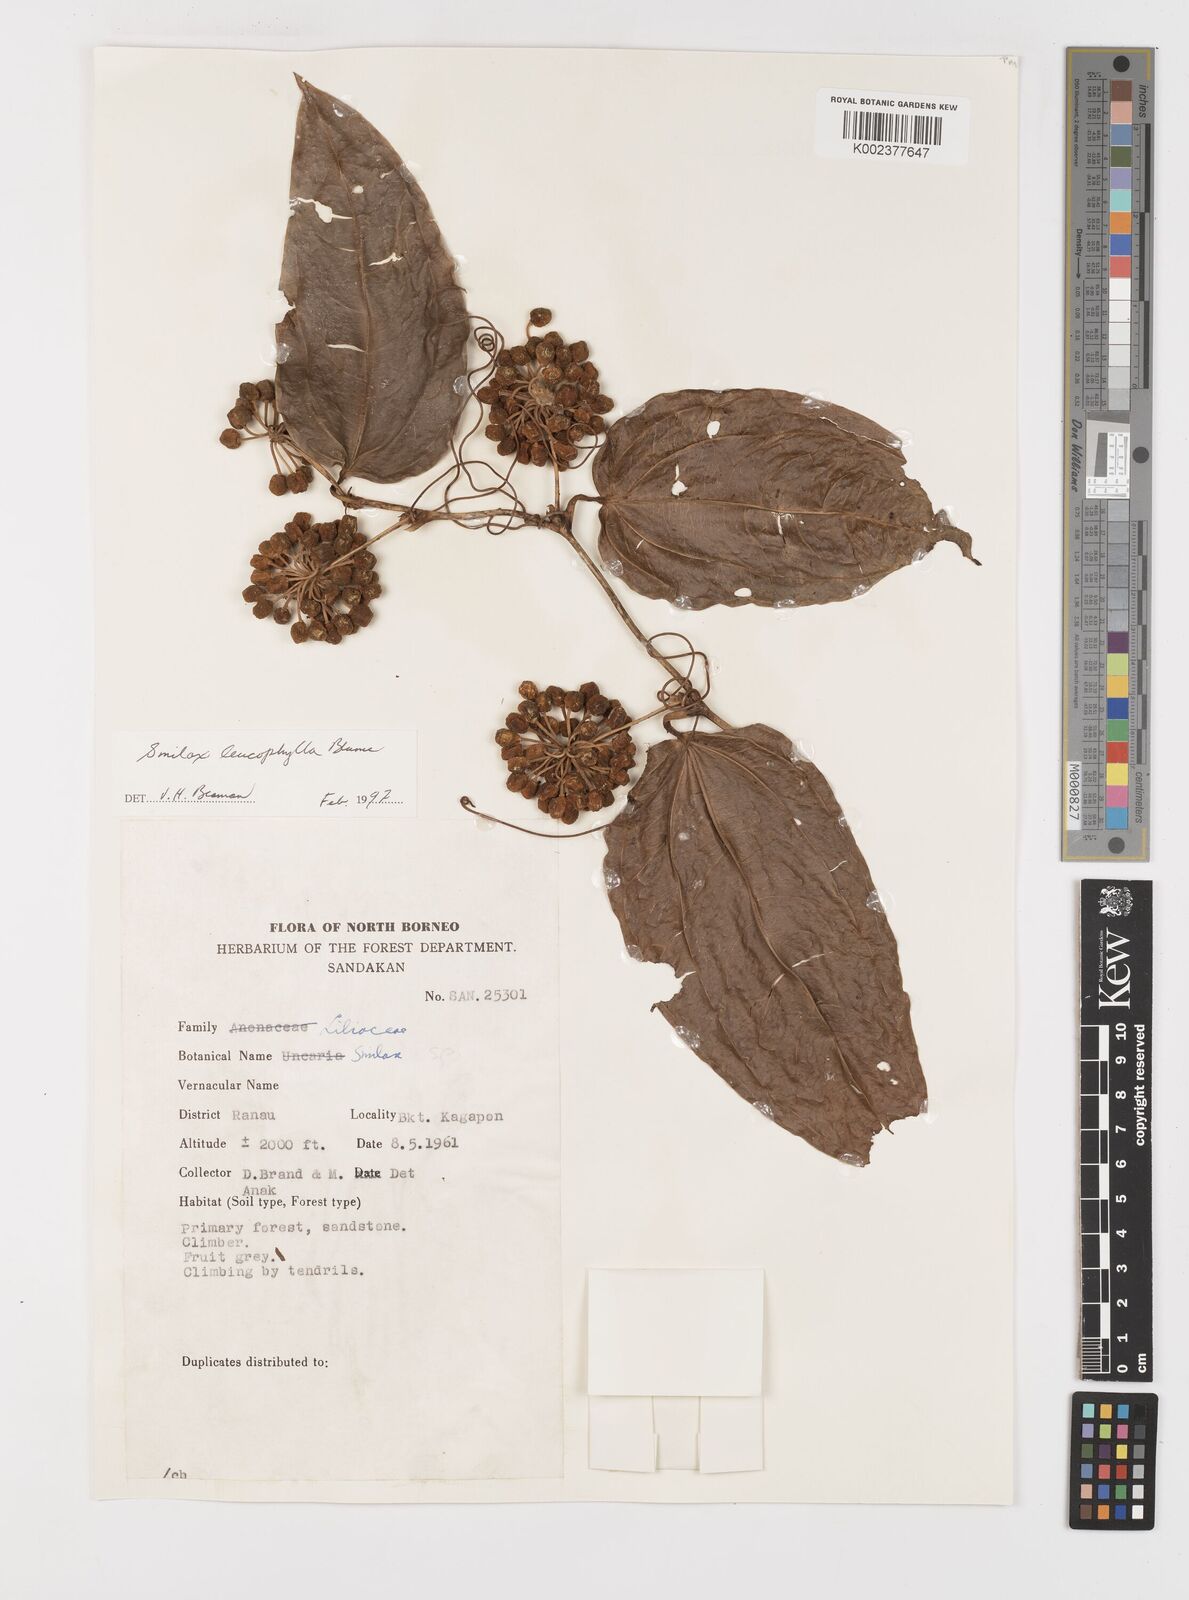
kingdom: Plantae
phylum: Tracheophyta
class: Liliopsida
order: Liliales
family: Smilacaceae
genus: Smilax
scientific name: Smilax
